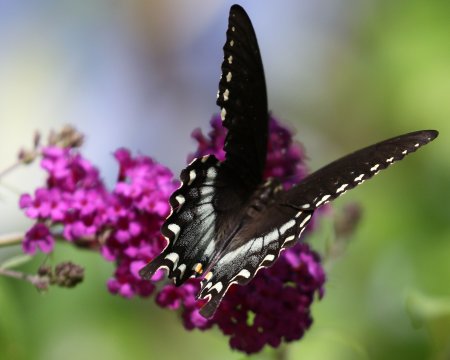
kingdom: Animalia
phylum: Arthropoda
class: Insecta
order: Lepidoptera
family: Papilionidae
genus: Pterourus
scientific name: Pterourus troilus
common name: Spicebush Swallowtail
